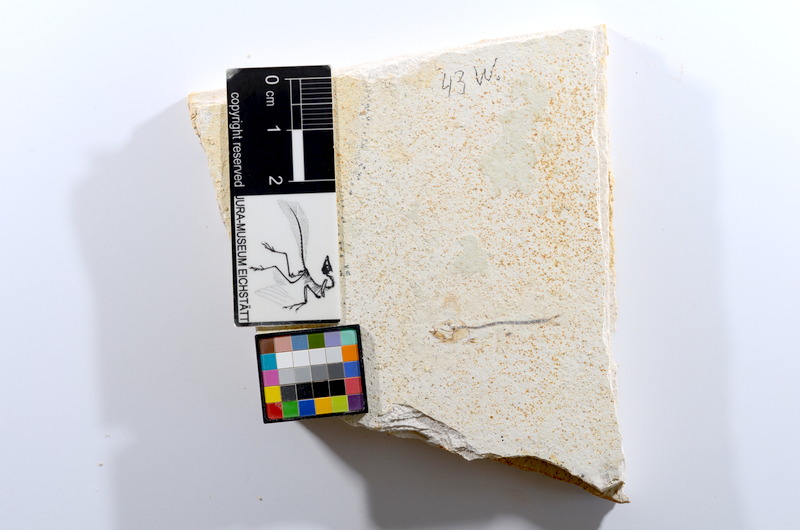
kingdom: Animalia
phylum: Chordata
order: Salmoniformes
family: Orthogonikleithridae
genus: Orthogonikleithrus
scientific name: Orthogonikleithrus hoelli
